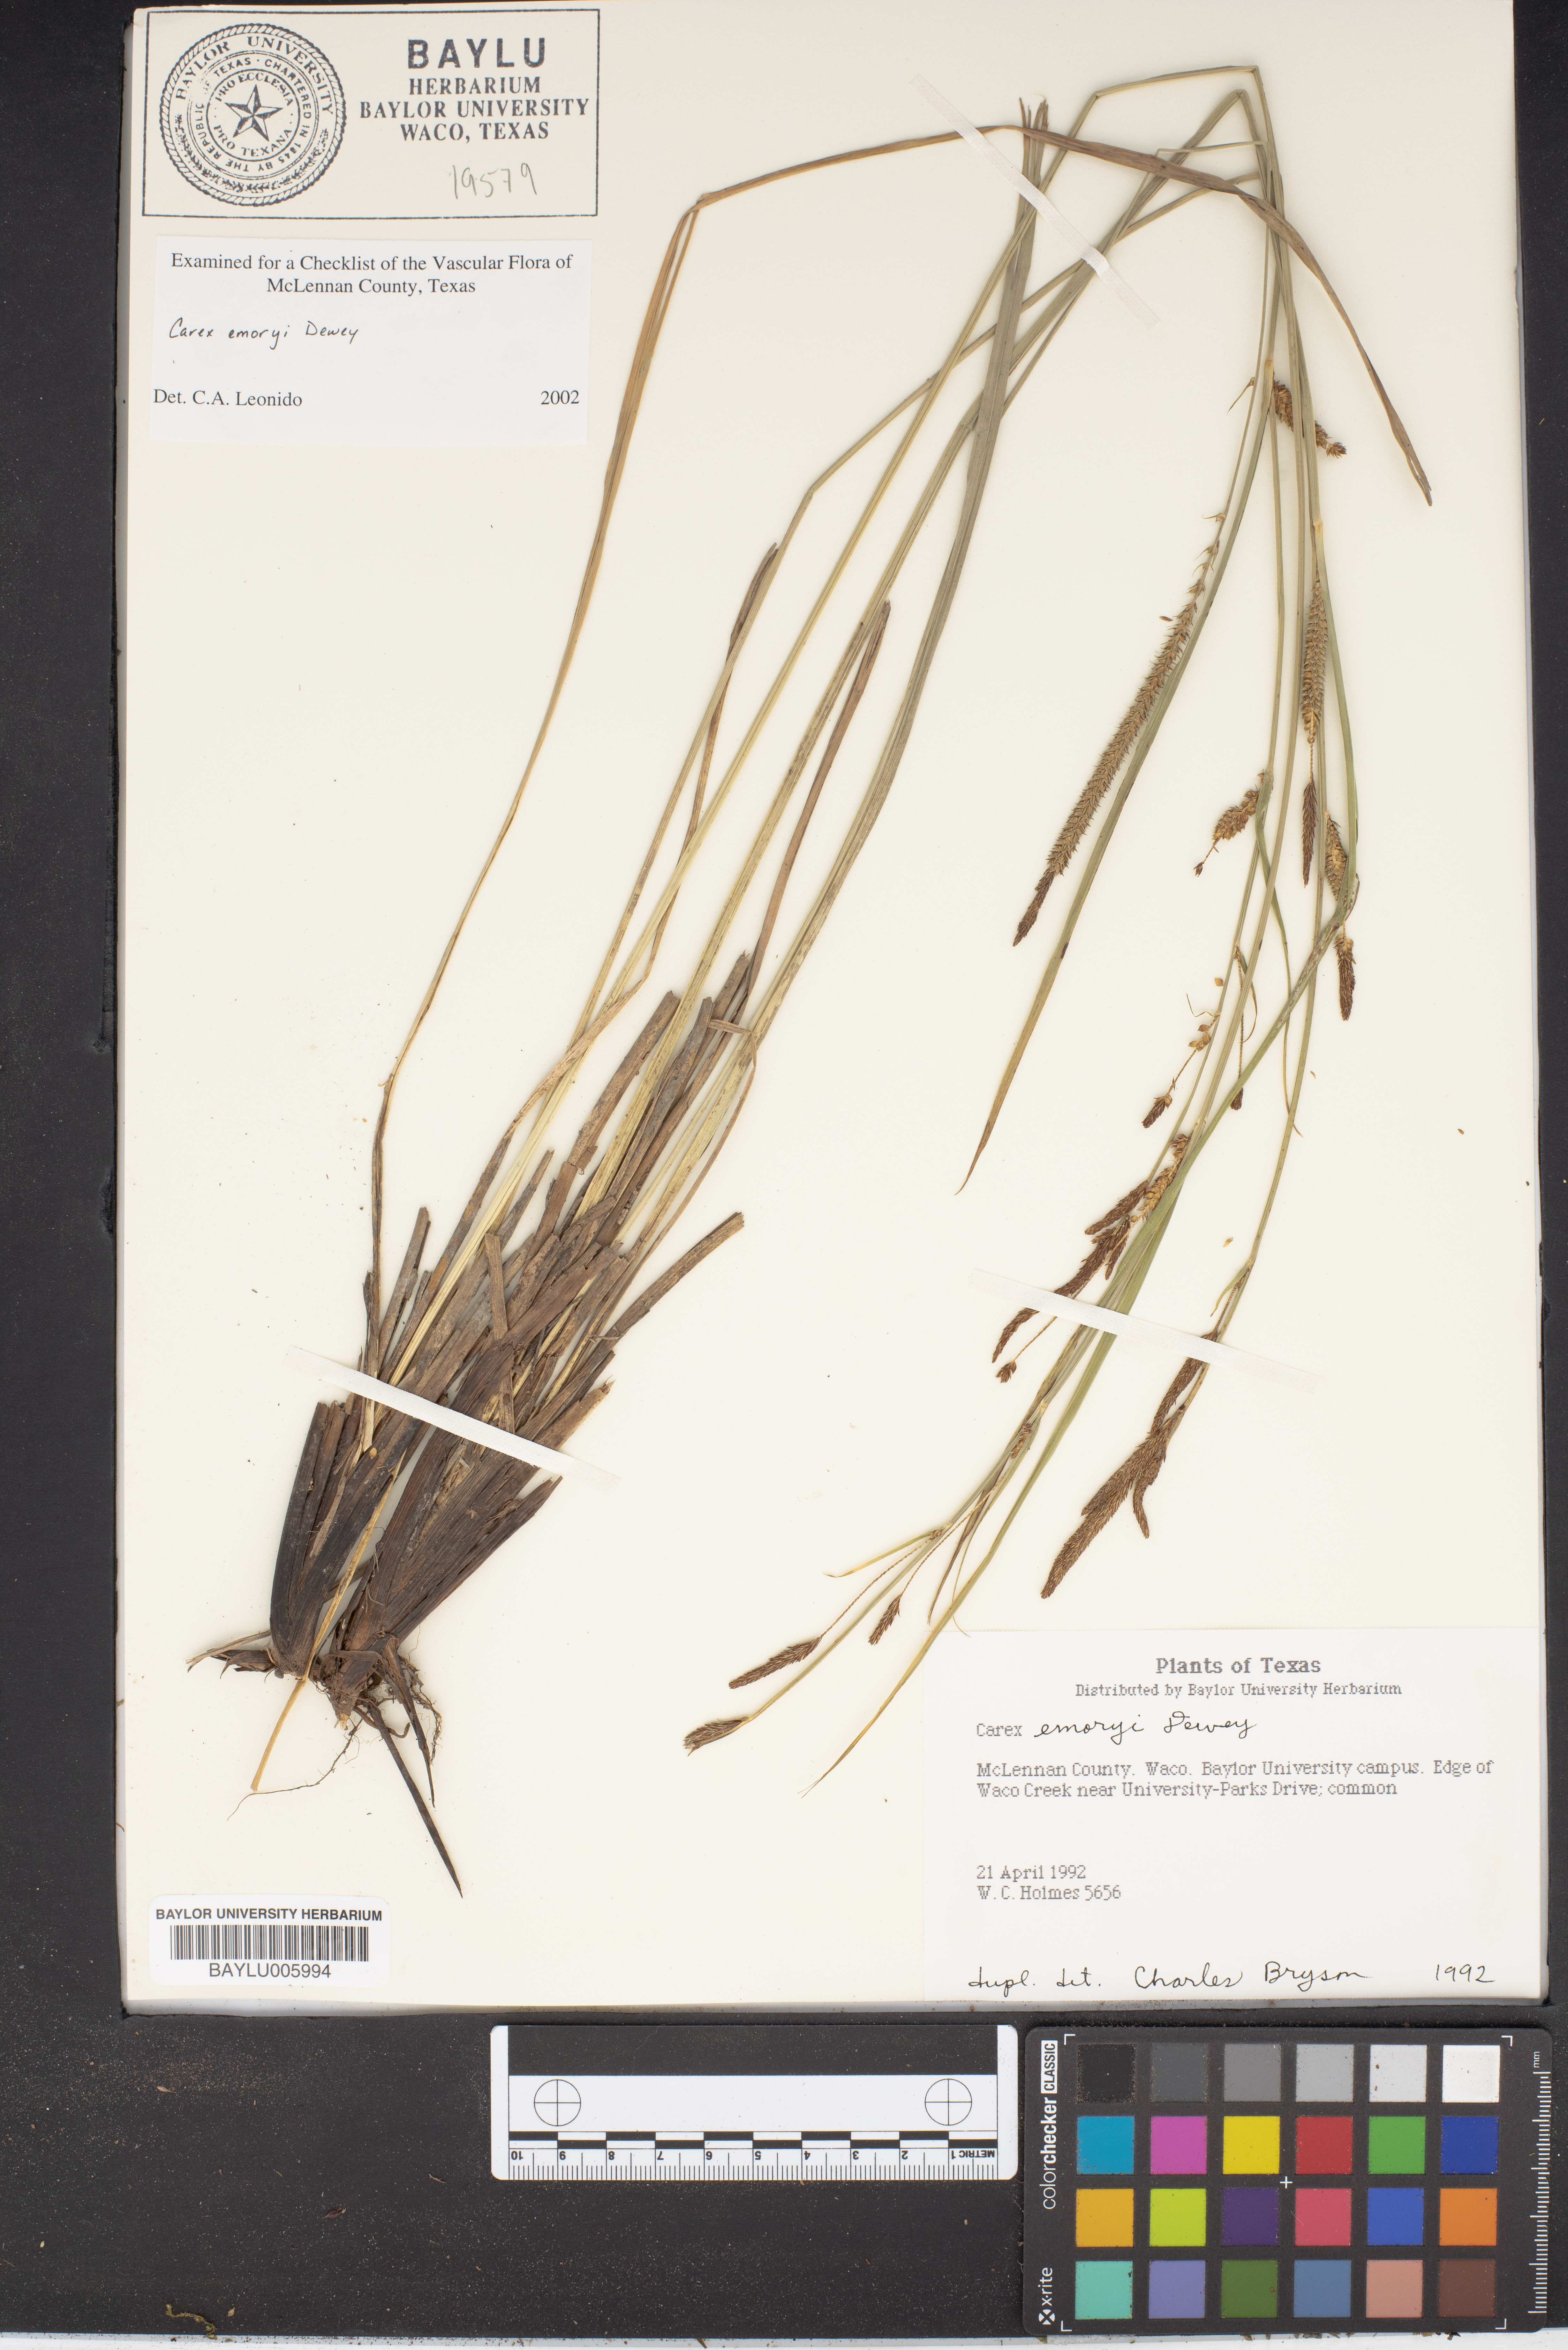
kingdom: Plantae
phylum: Tracheophyta
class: Liliopsida
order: Poales
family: Cyperaceae
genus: Carex
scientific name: Carex emoryi
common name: Emory's sedge
